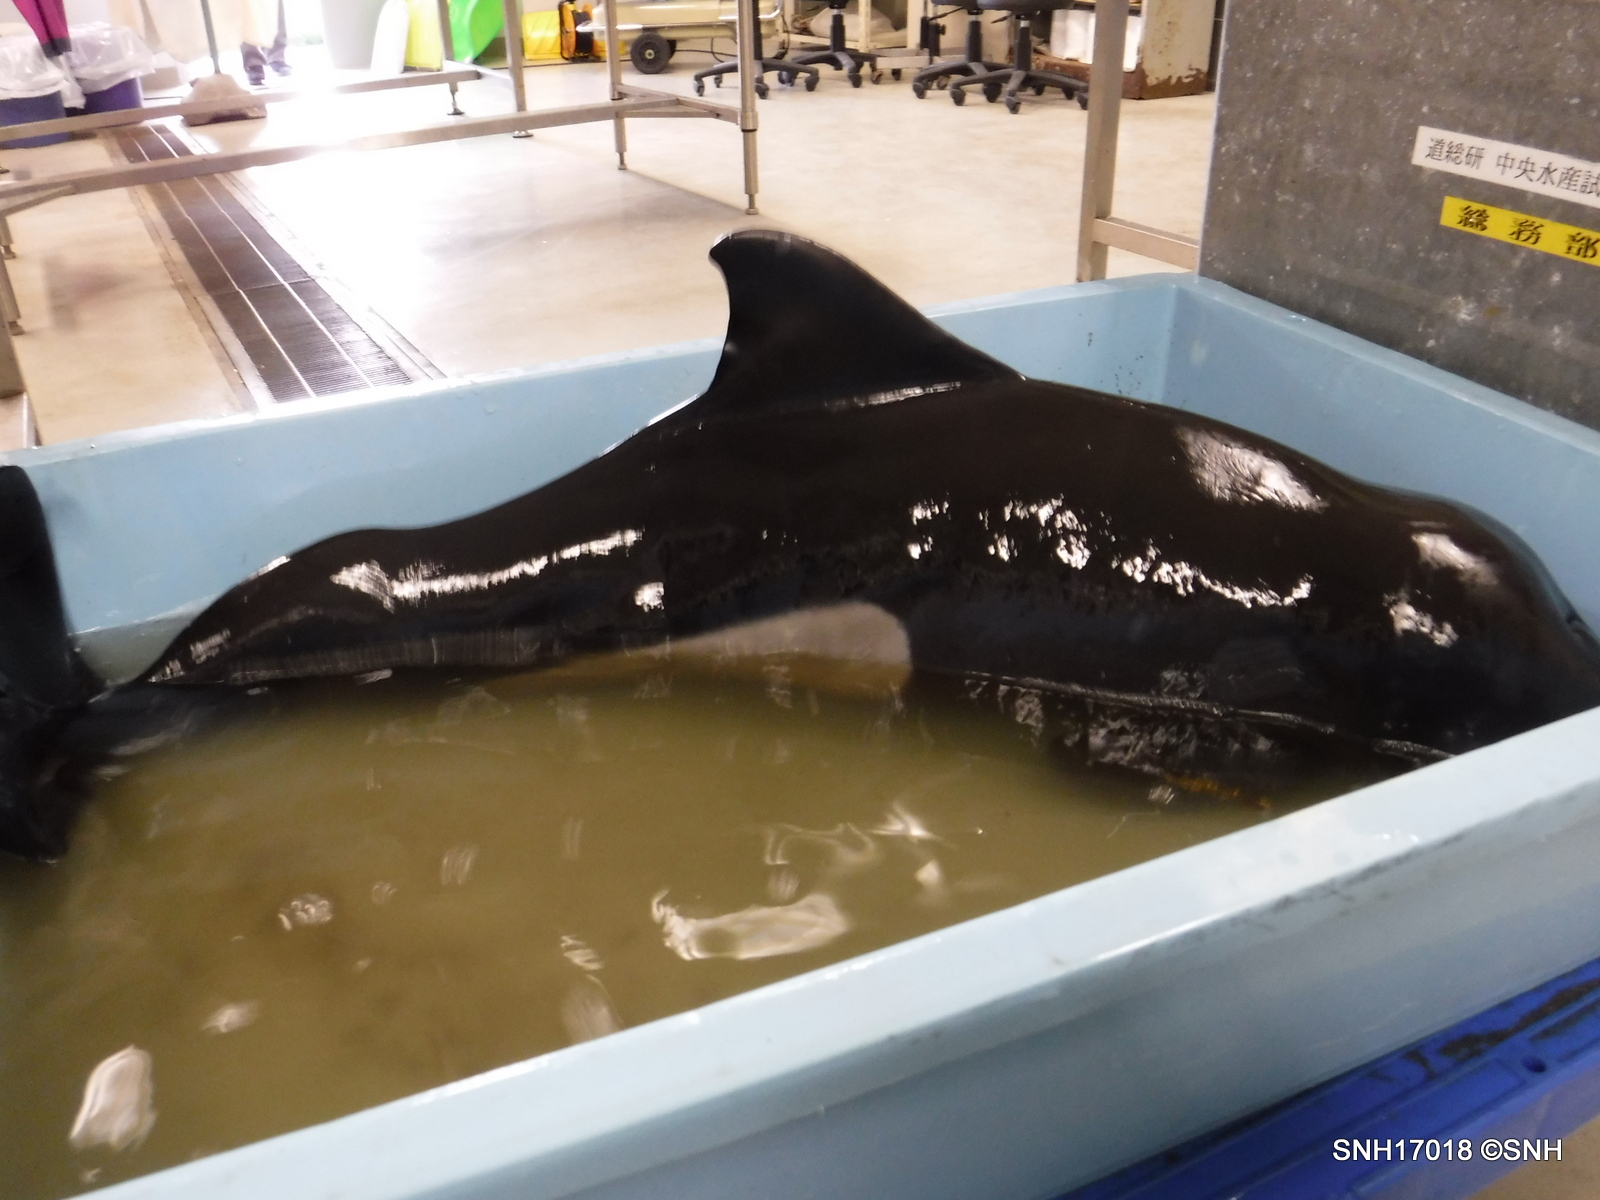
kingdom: Animalia
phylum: Chordata
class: Mammalia
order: Cetacea
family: Phocoenidae
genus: Phocoenoides
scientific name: Phocoenoides dalli
